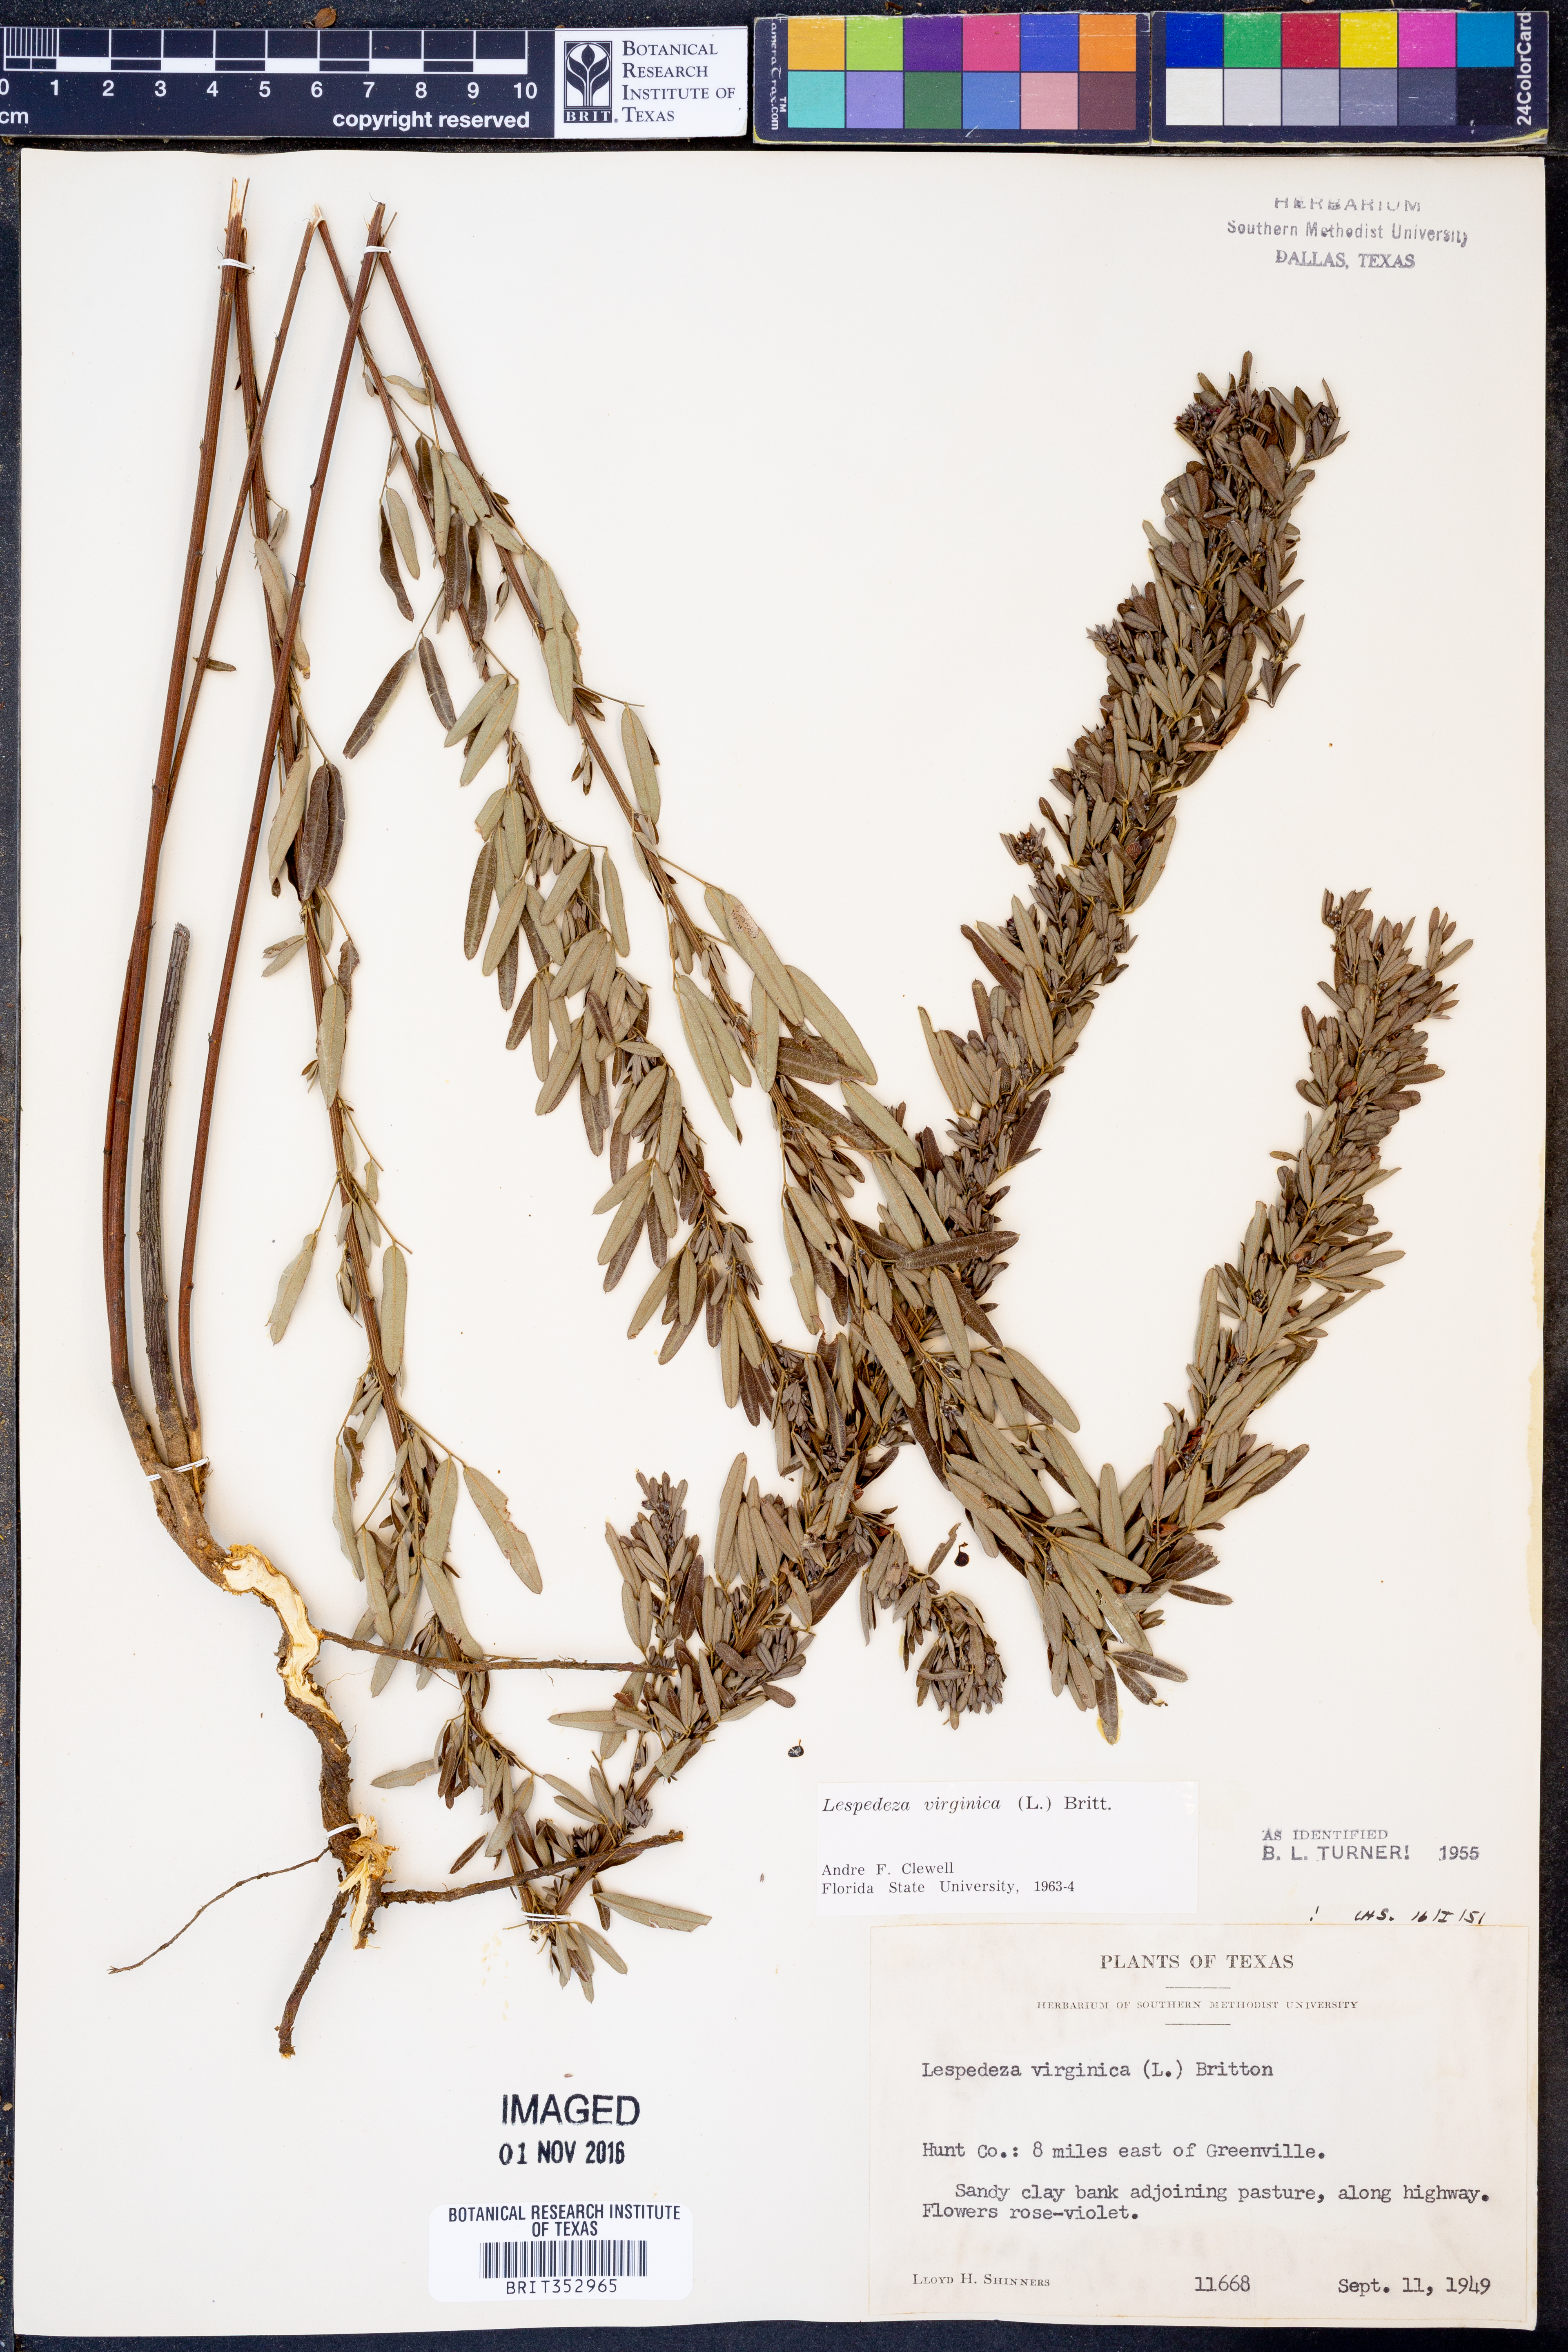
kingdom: Plantae
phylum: Tracheophyta
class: Magnoliopsida
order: Fabales
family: Fabaceae
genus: Lespedeza
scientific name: Lespedeza virginica
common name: Slender bush-clover
